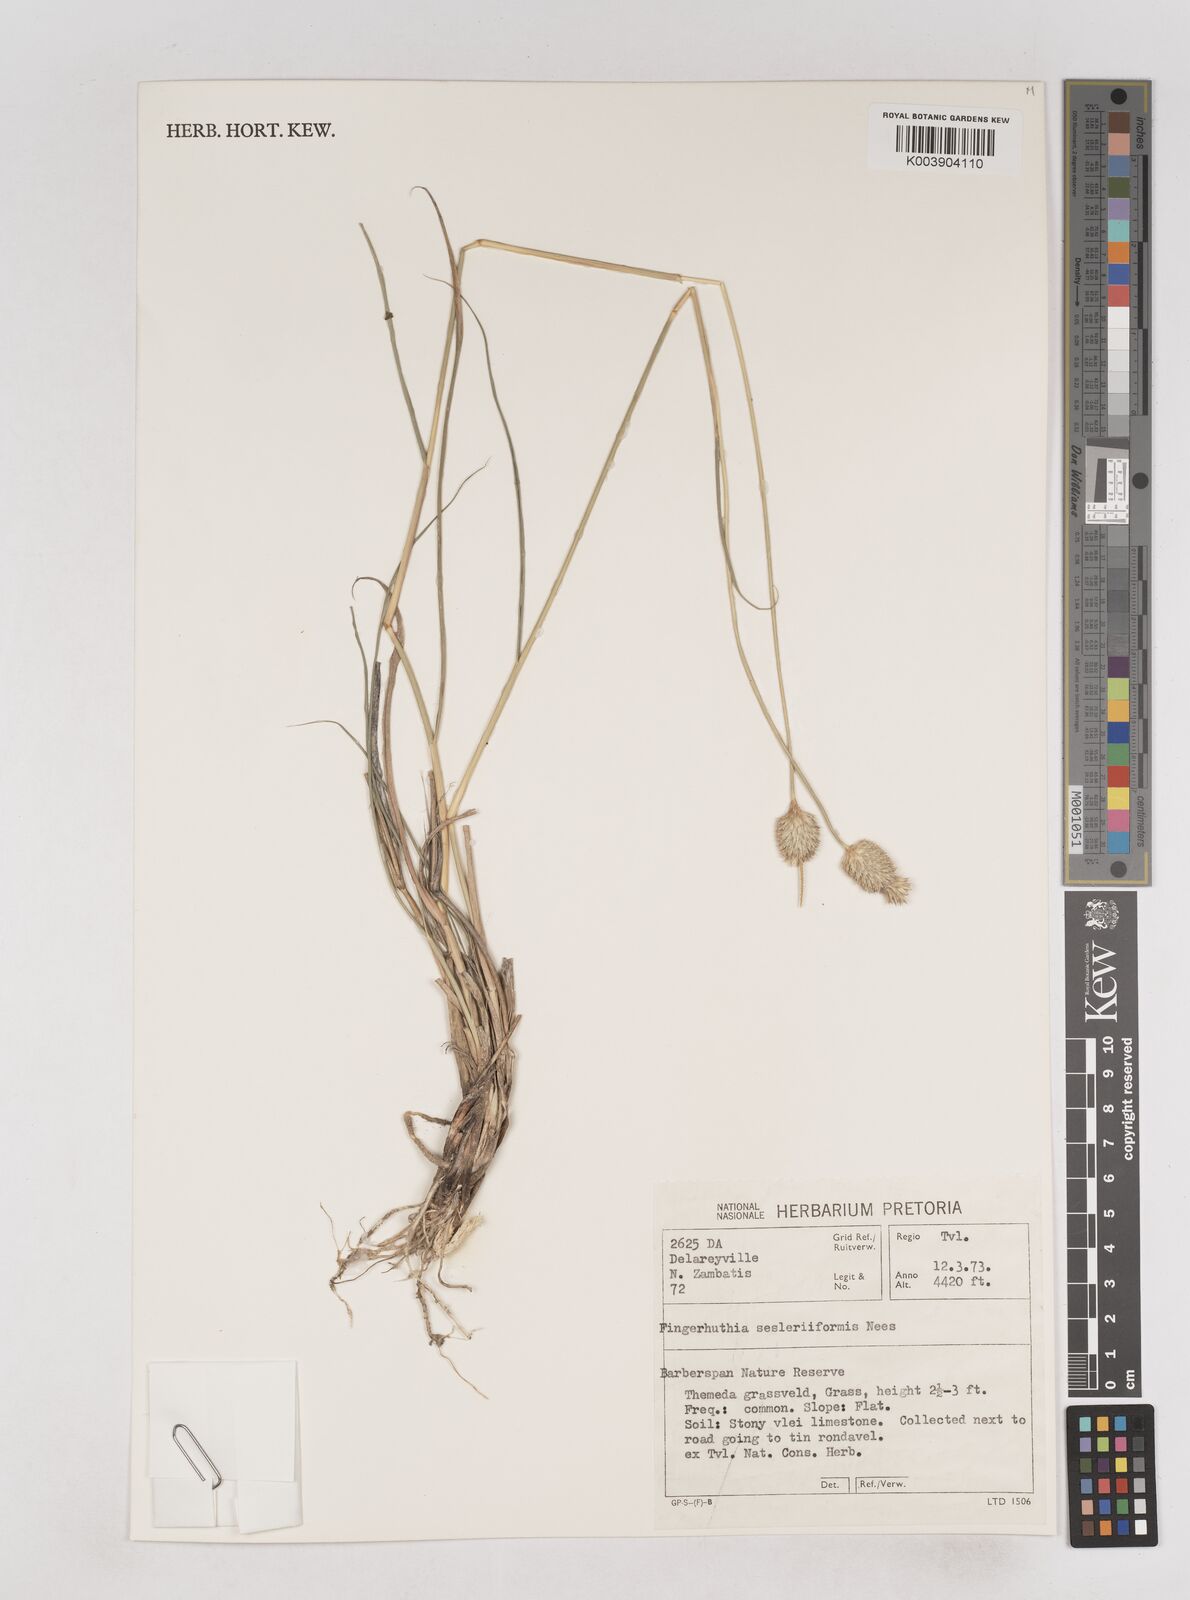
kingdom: Plantae
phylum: Tracheophyta
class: Liliopsida
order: Poales
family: Poaceae
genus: Fingerhuthia
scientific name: Fingerhuthia sesleriiformis
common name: Thimble grass
